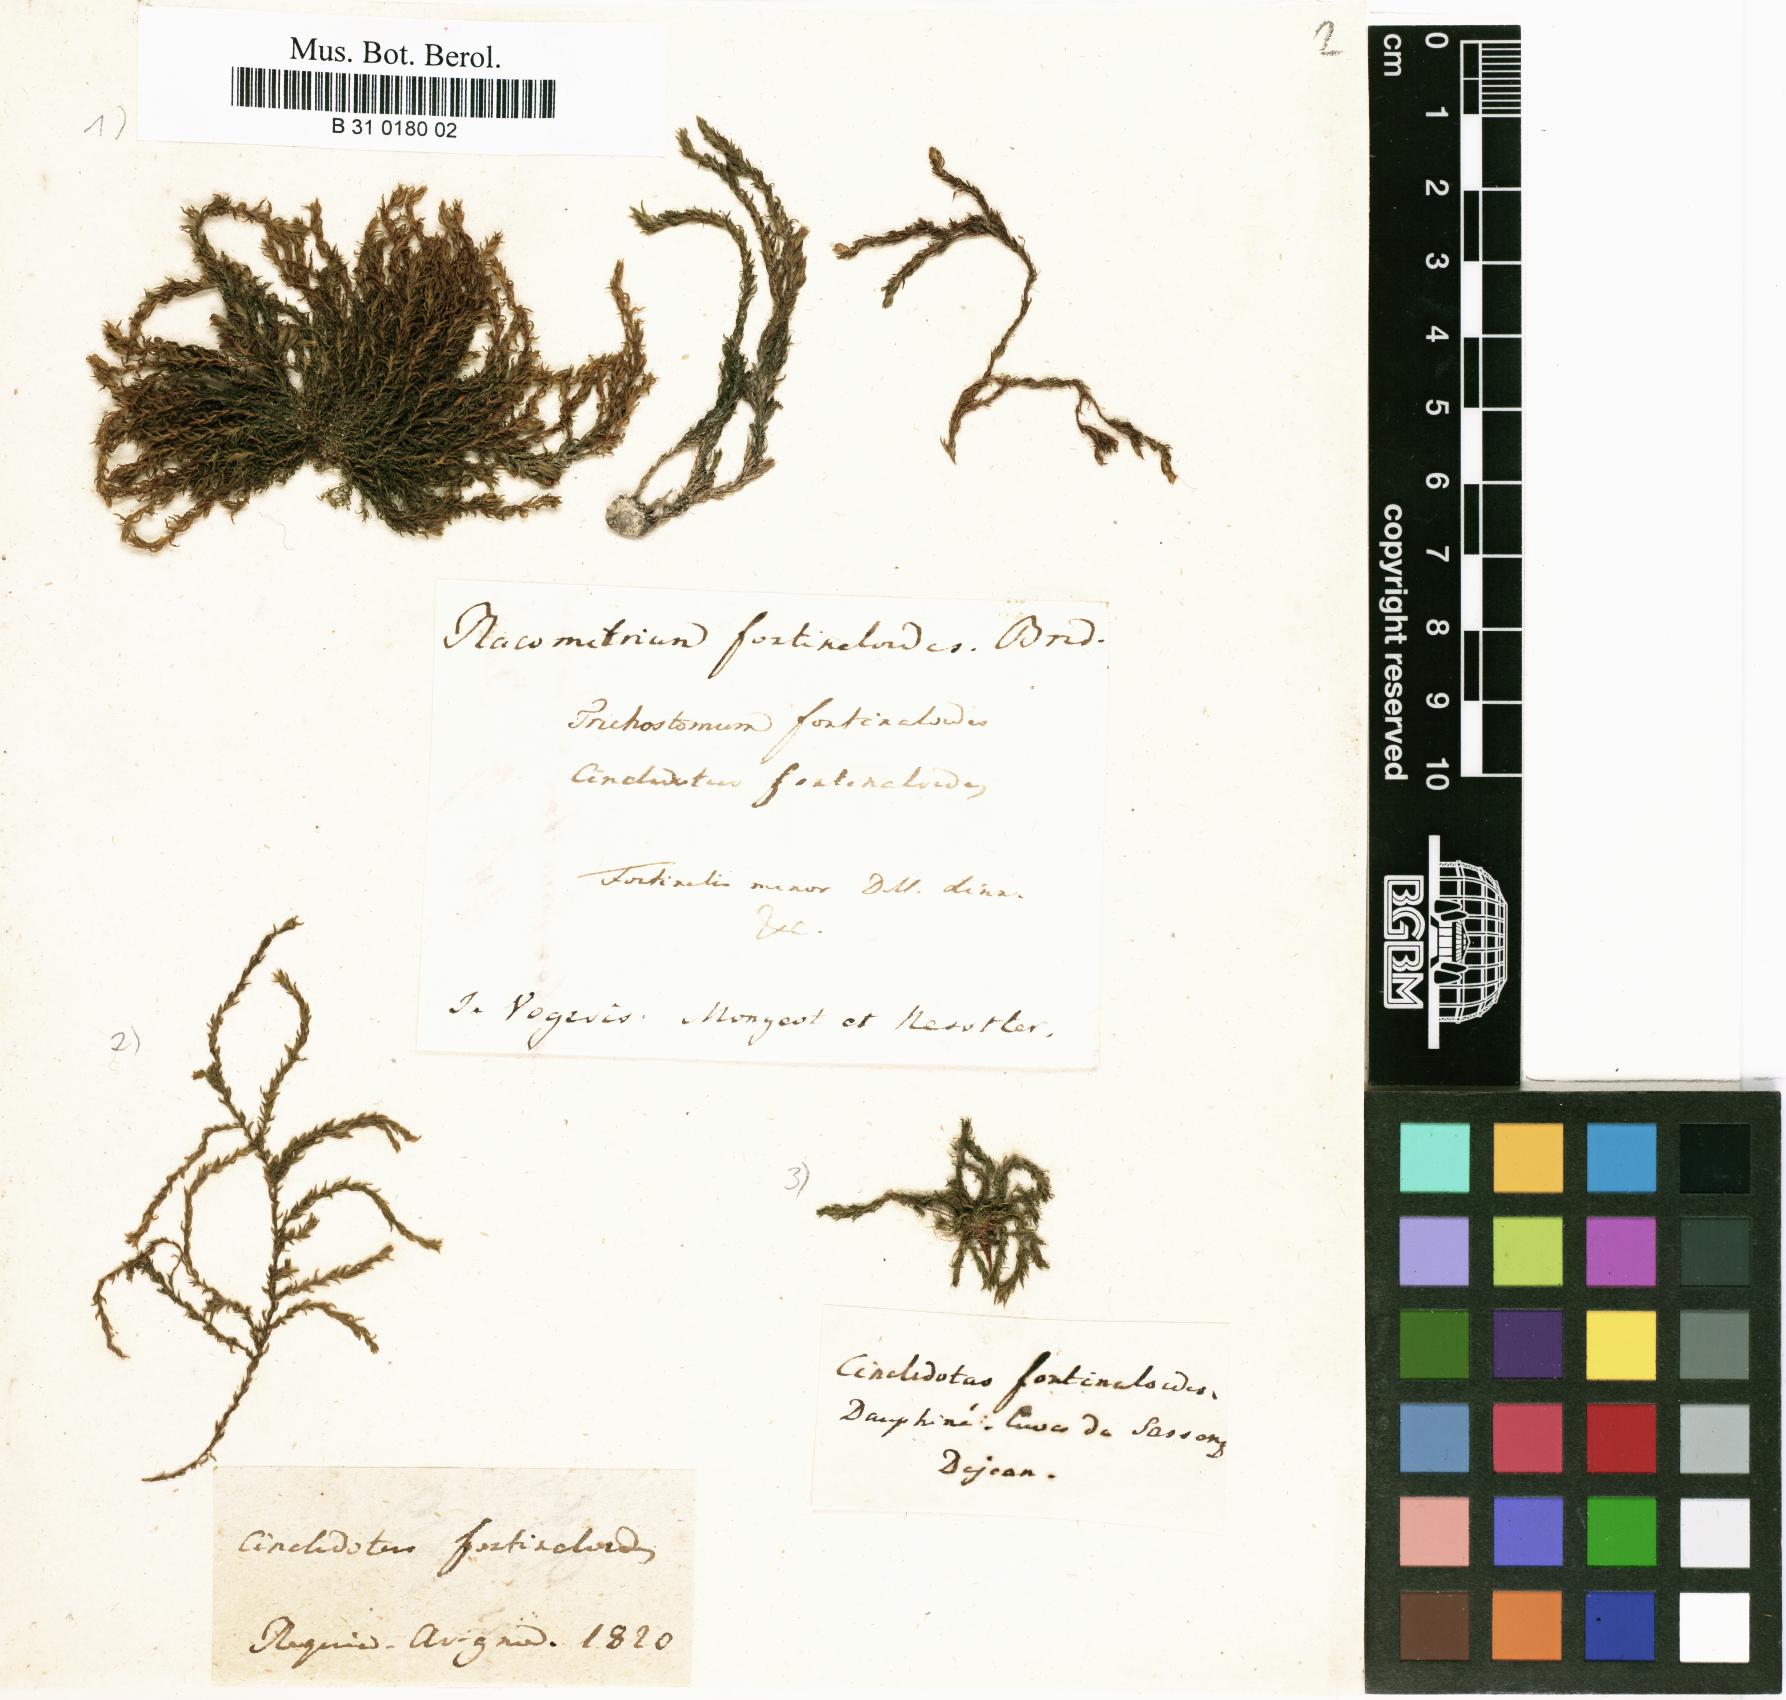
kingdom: Plantae
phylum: Bryophyta
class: Bryopsida
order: Pottiales
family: Pottiaceae
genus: Cinclidotus
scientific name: Cinclidotus fontinaloides
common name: Smaller lattice-moss
